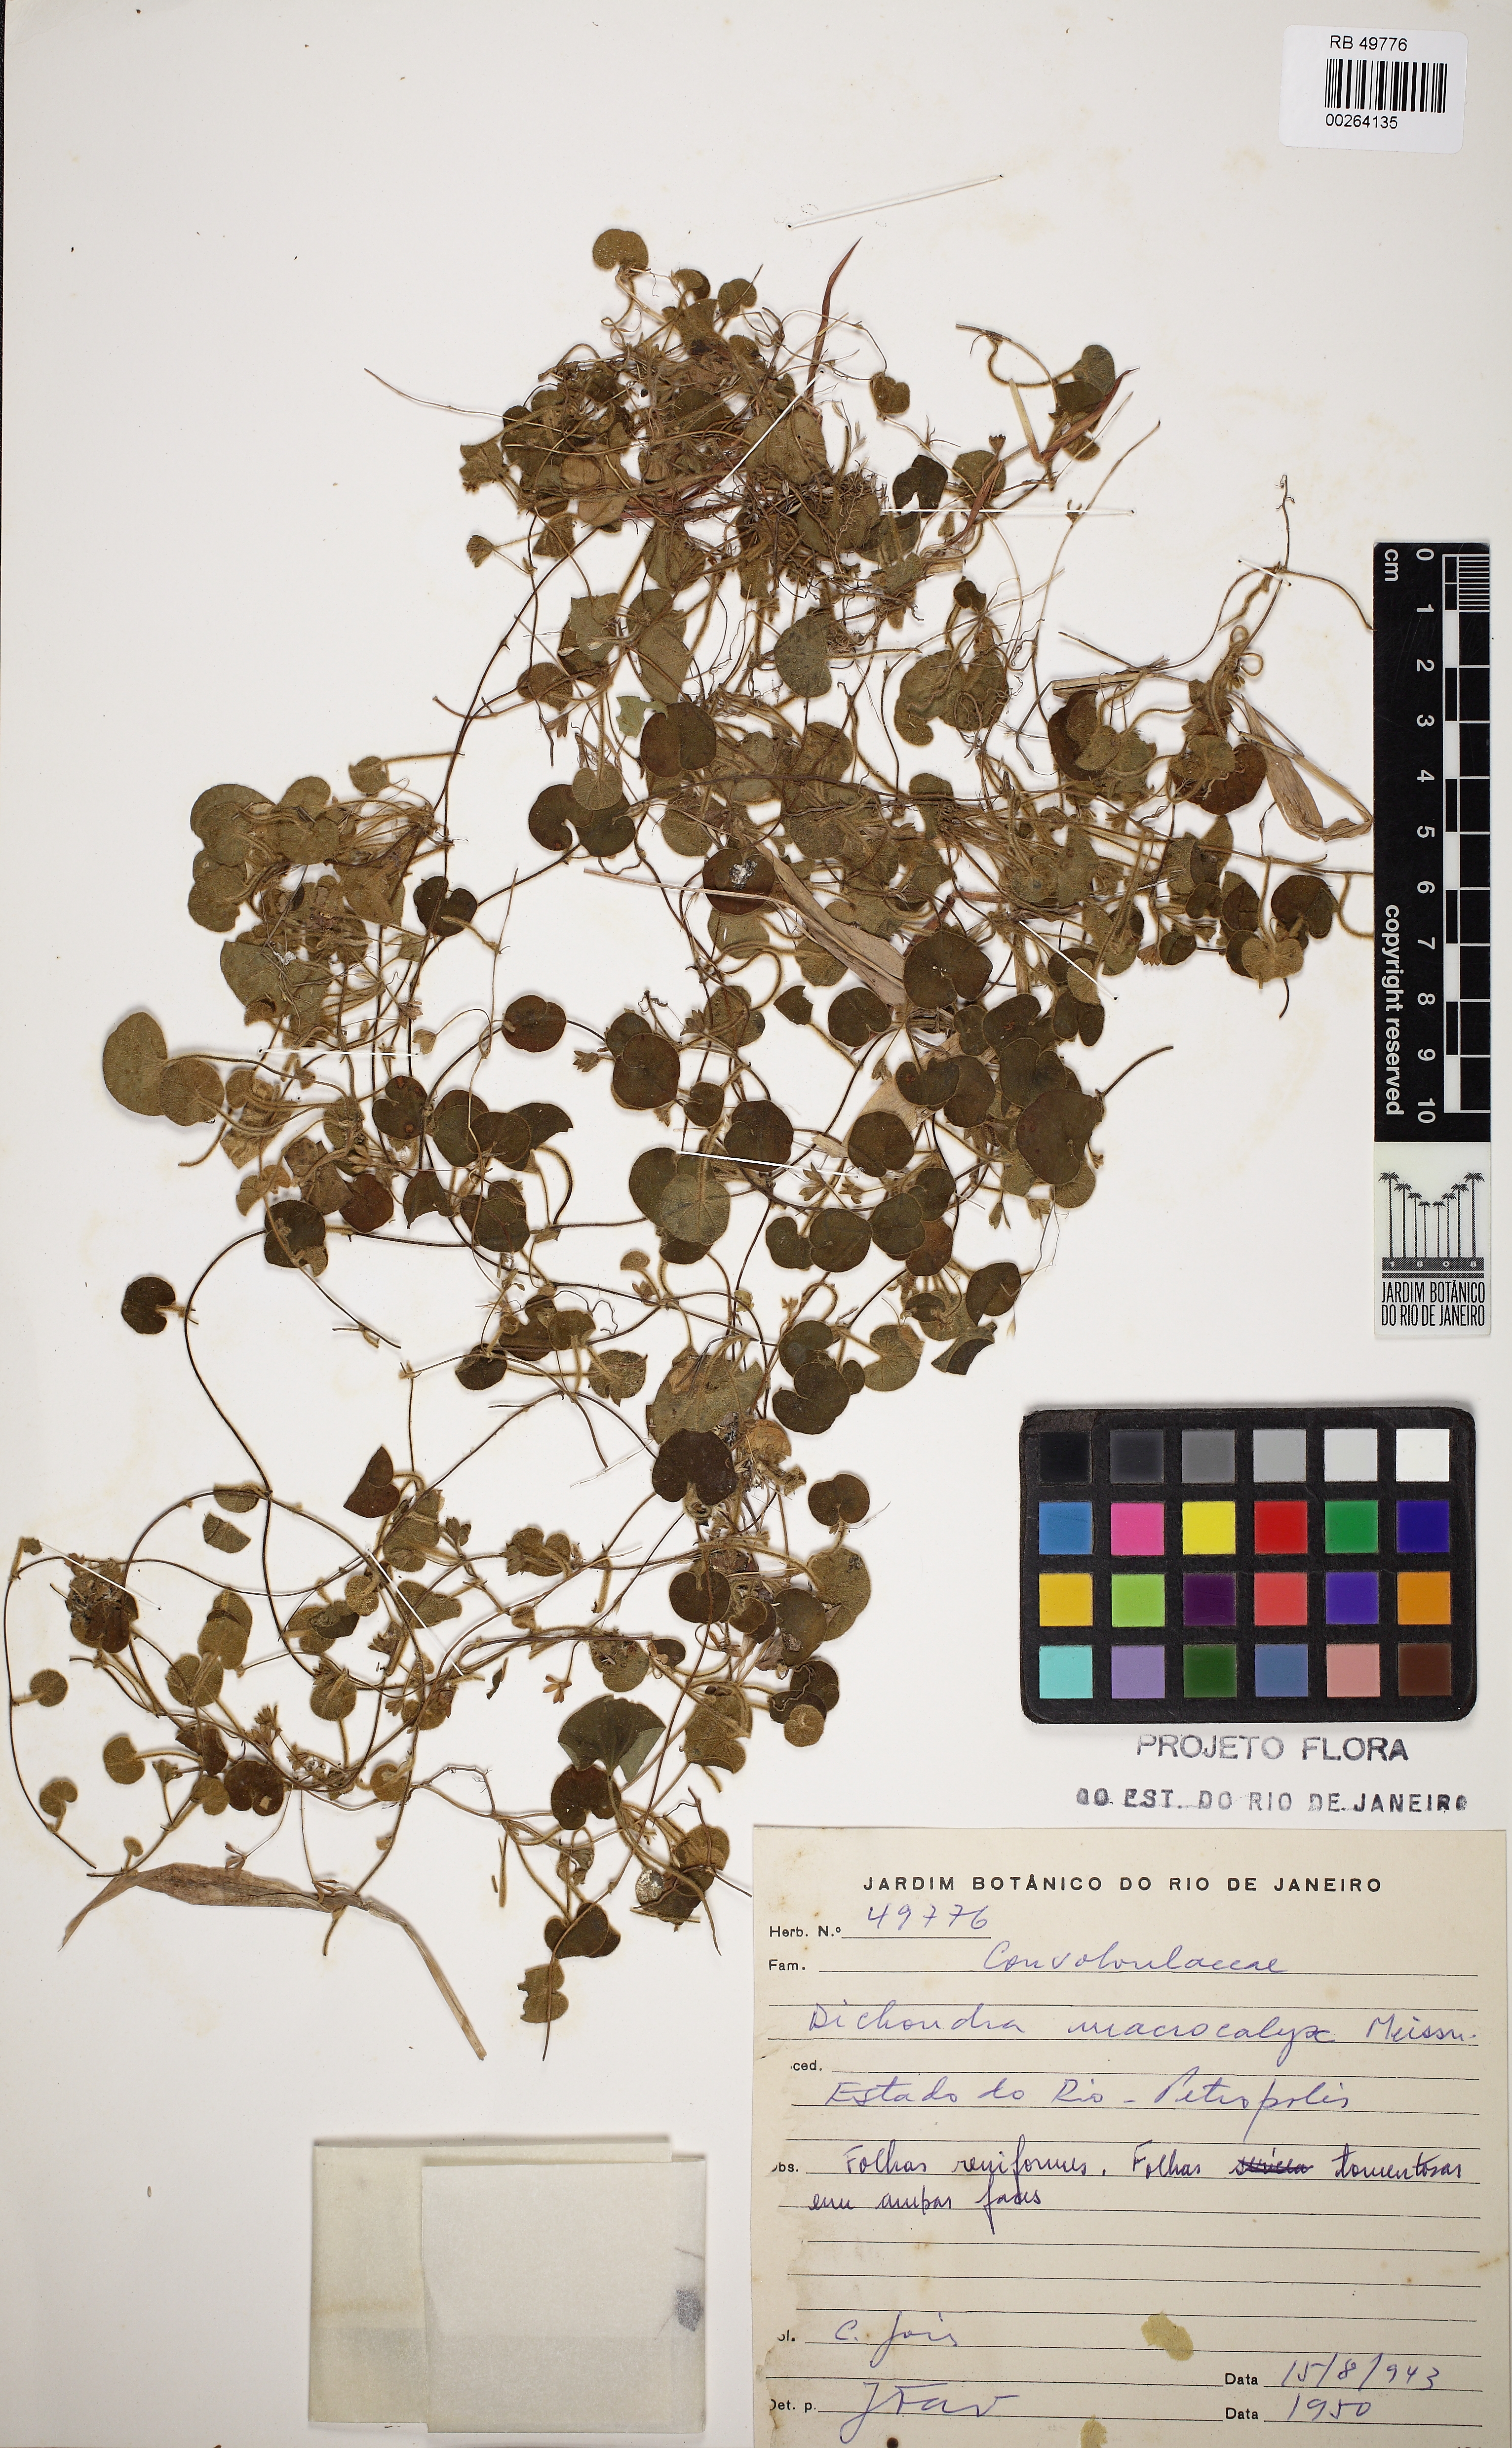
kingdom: Plantae
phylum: Tracheophyta
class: Magnoliopsida
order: Solanales
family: Convolvulaceae
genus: Dichondra
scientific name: Dichondra macrocalyx
